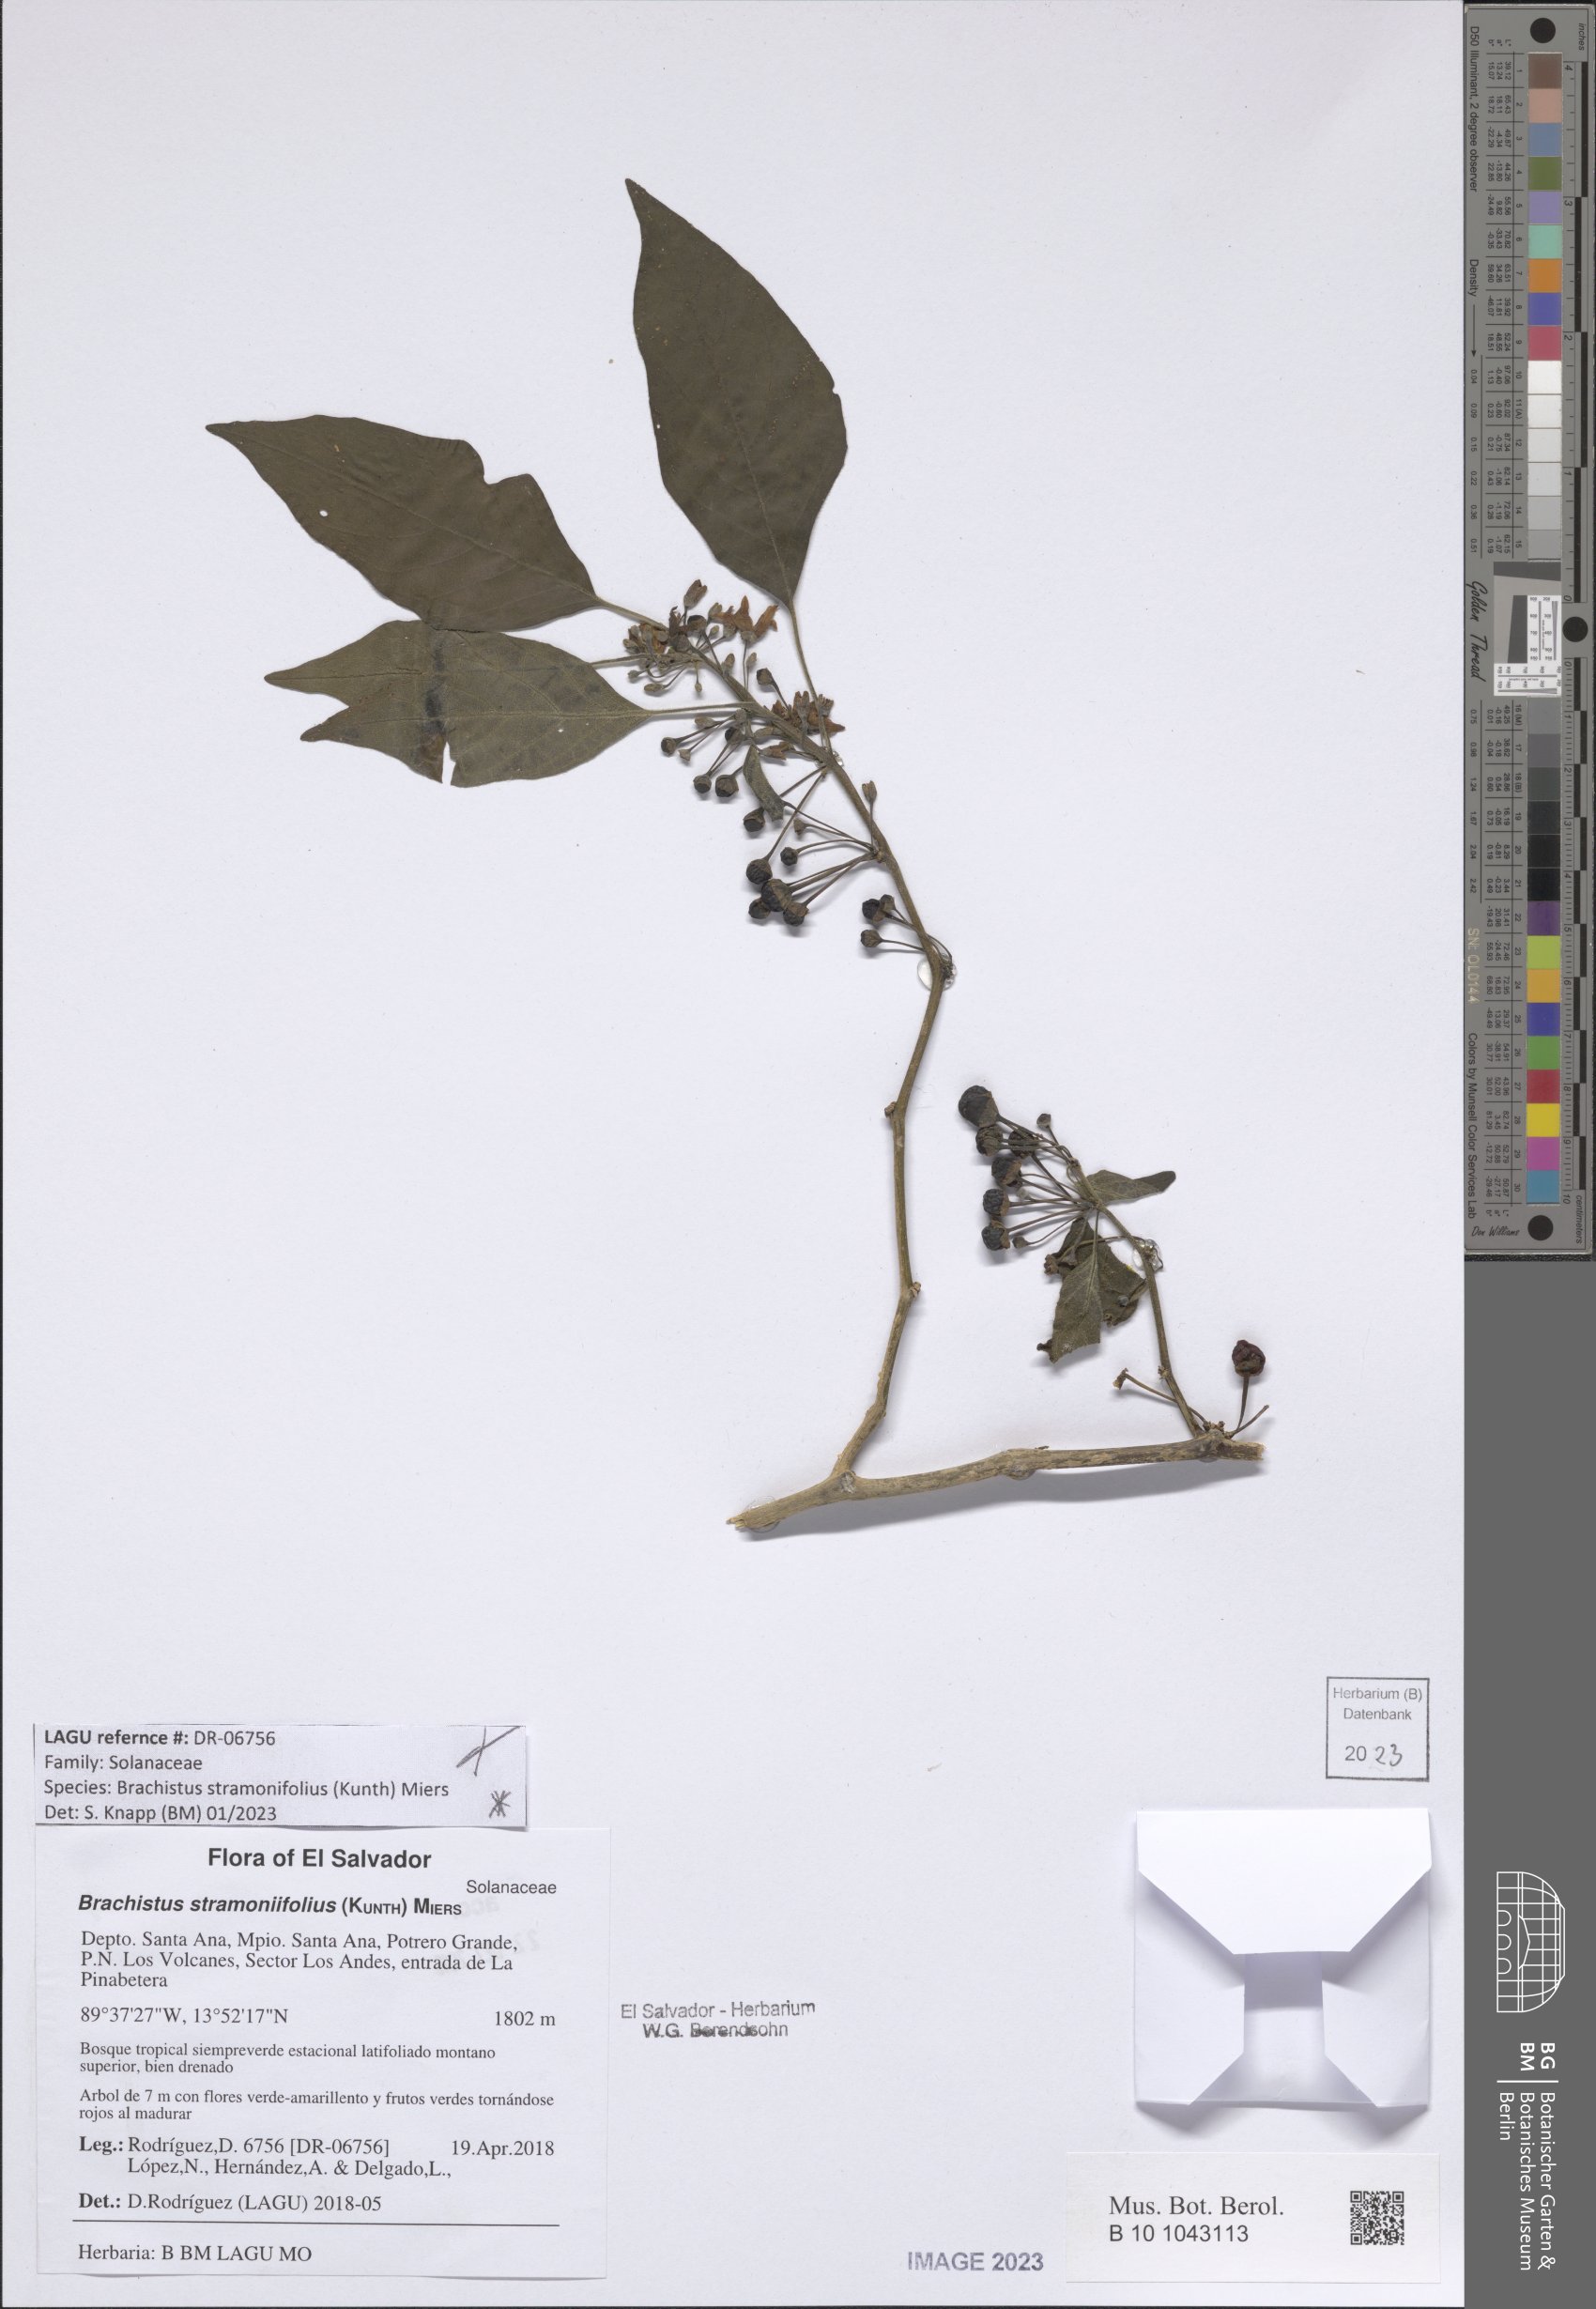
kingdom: Plantae
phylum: Tracheophyta
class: Magnoliopsida
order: Solanales
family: Solanaceae
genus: Brachistus
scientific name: Brachistus stramonifolius
